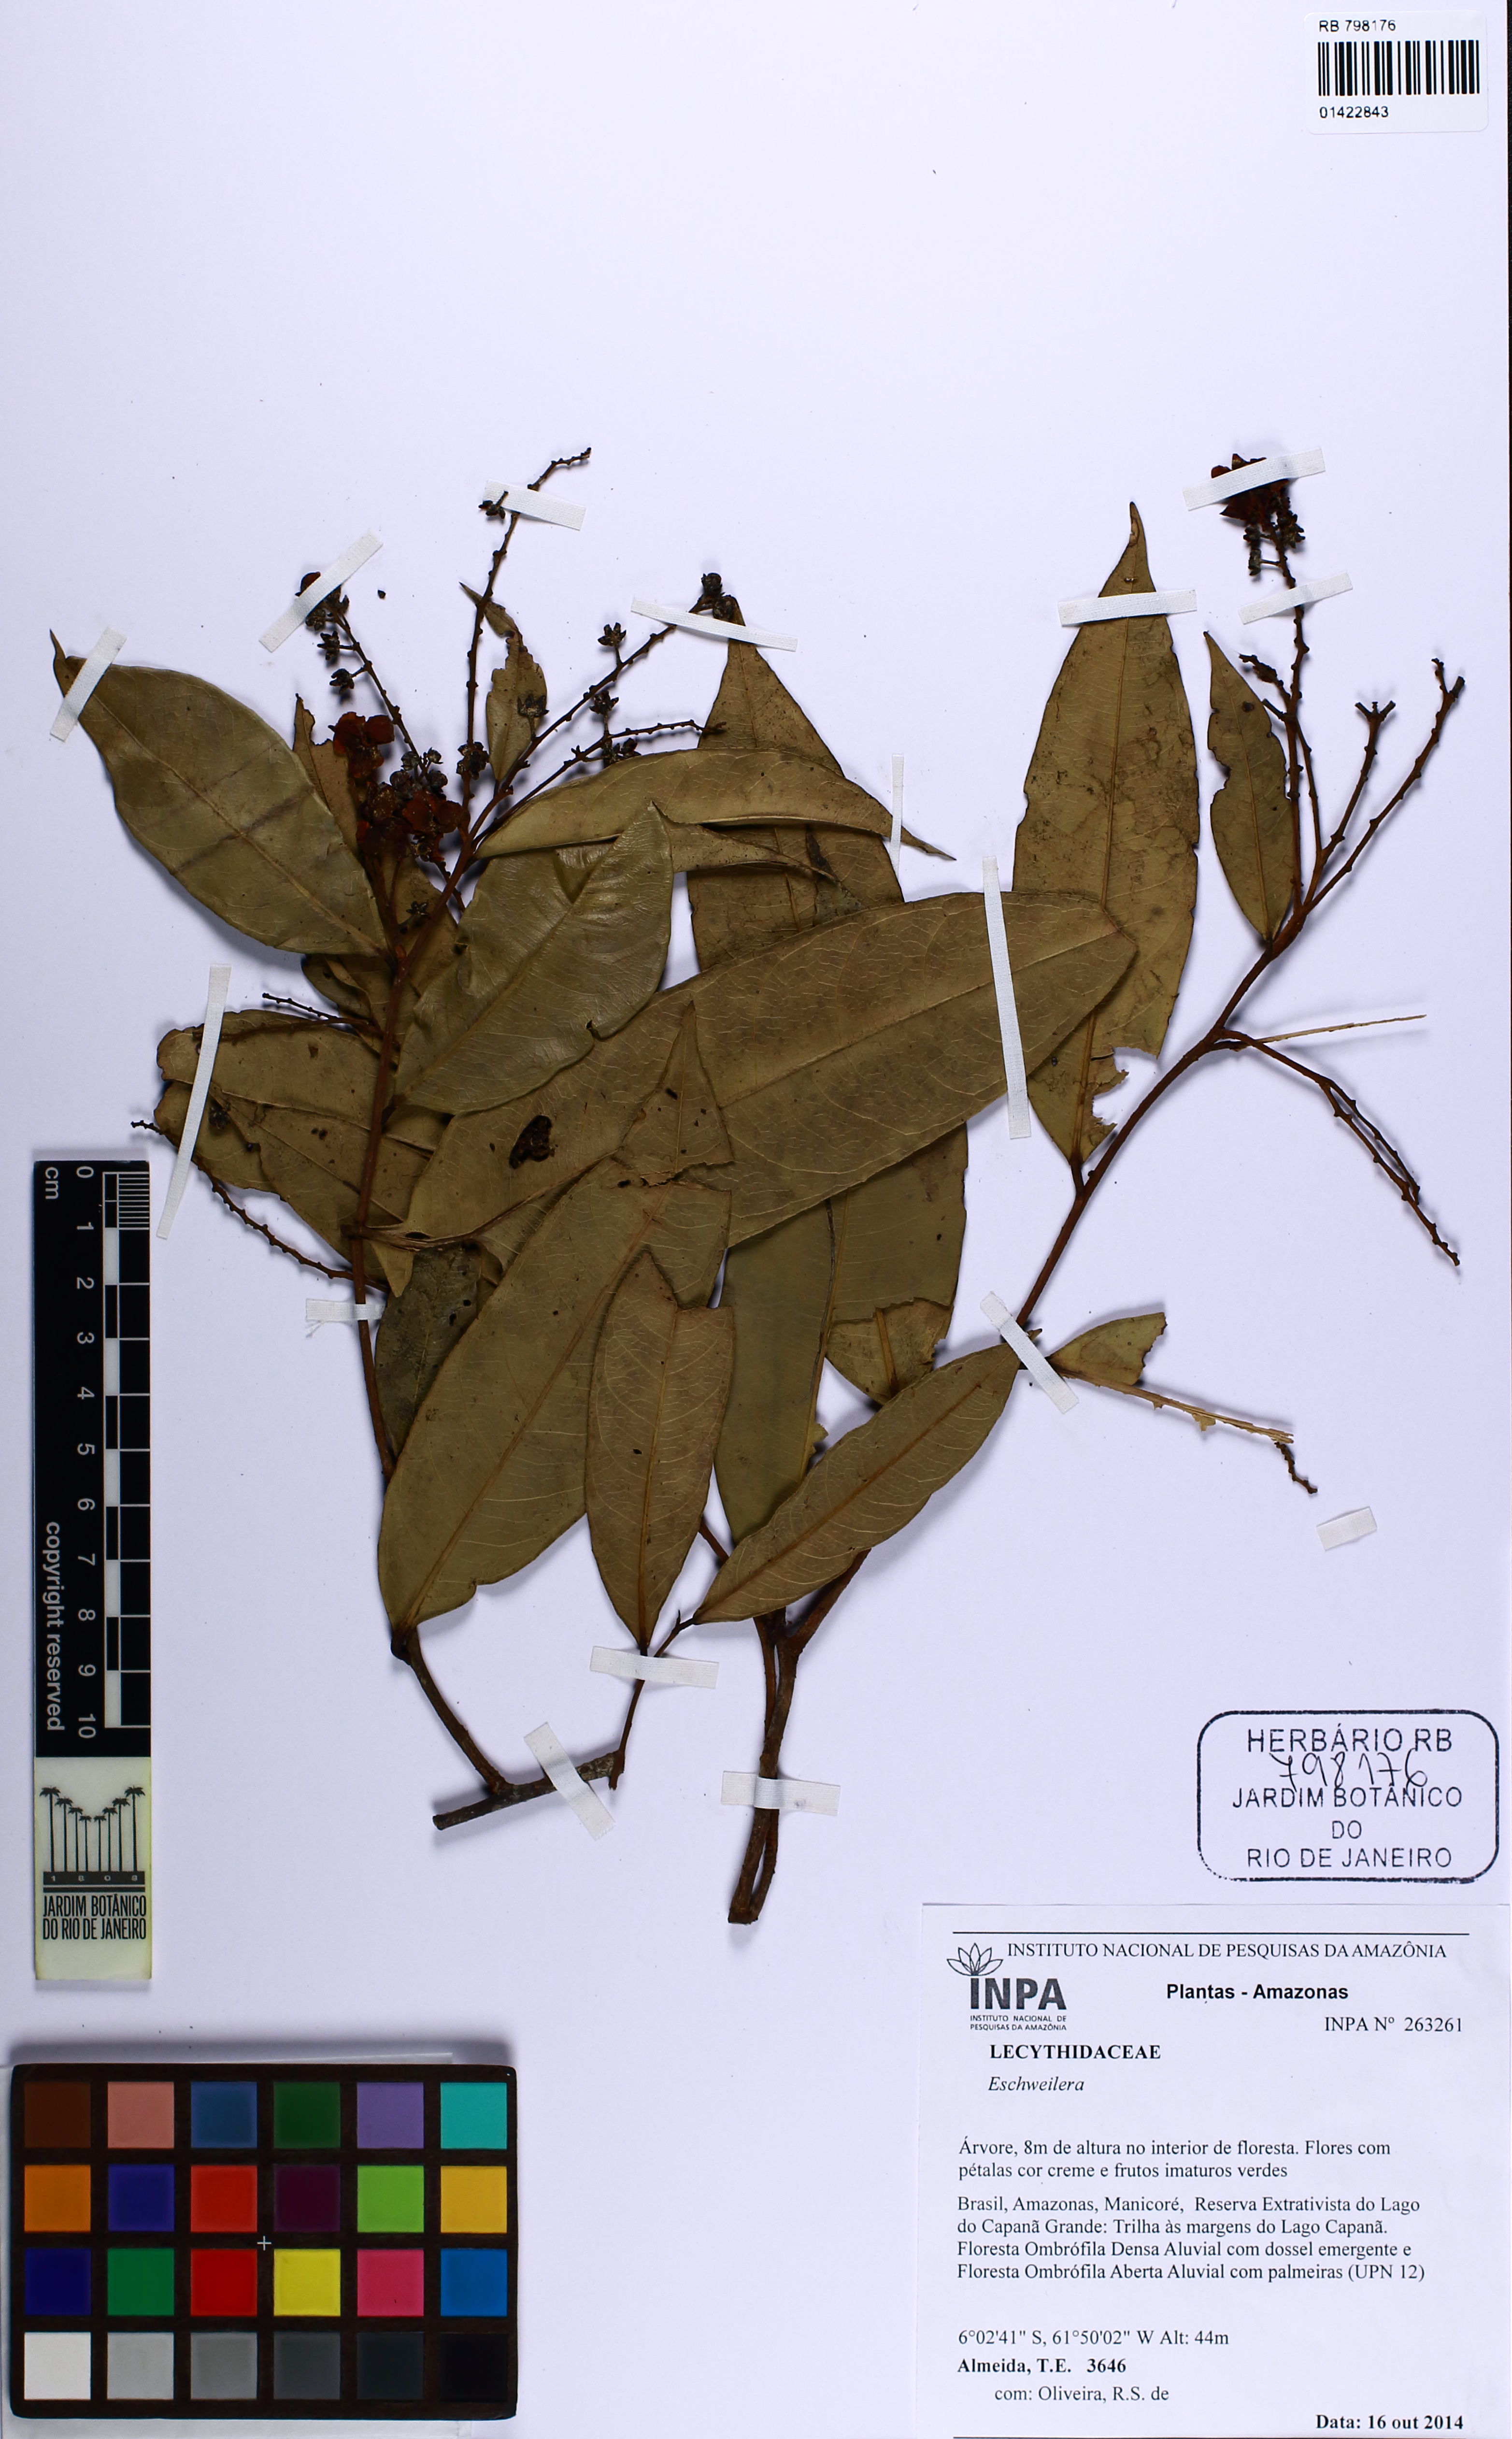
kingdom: Plantae
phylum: Tracheophyta
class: Magnoliopsida
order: Ericales
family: Lecythidaceae
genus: Eschweilera
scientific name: Eschweilera bracteosa
